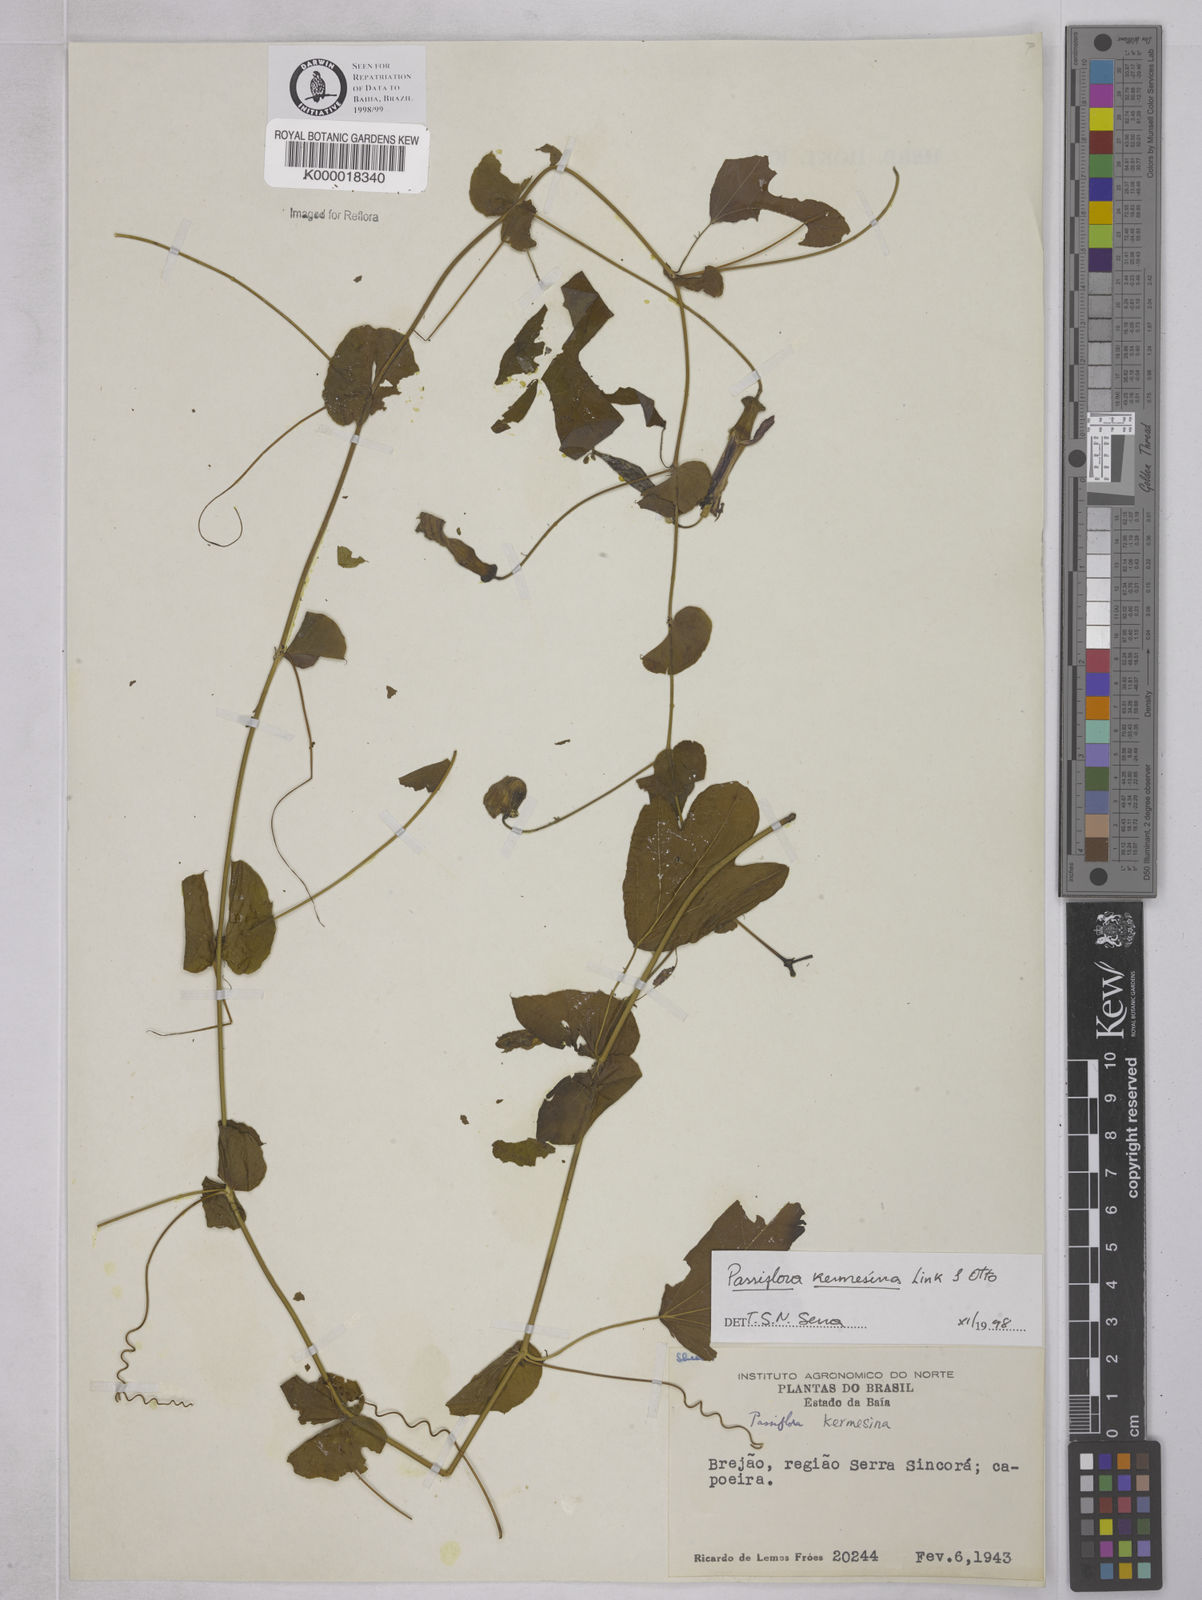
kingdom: Plantae
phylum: Tracheophyta
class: Magnoliopsida
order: Malpighiales
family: Passifloraceae
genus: Passiflora
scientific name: Passiflora kermesina
